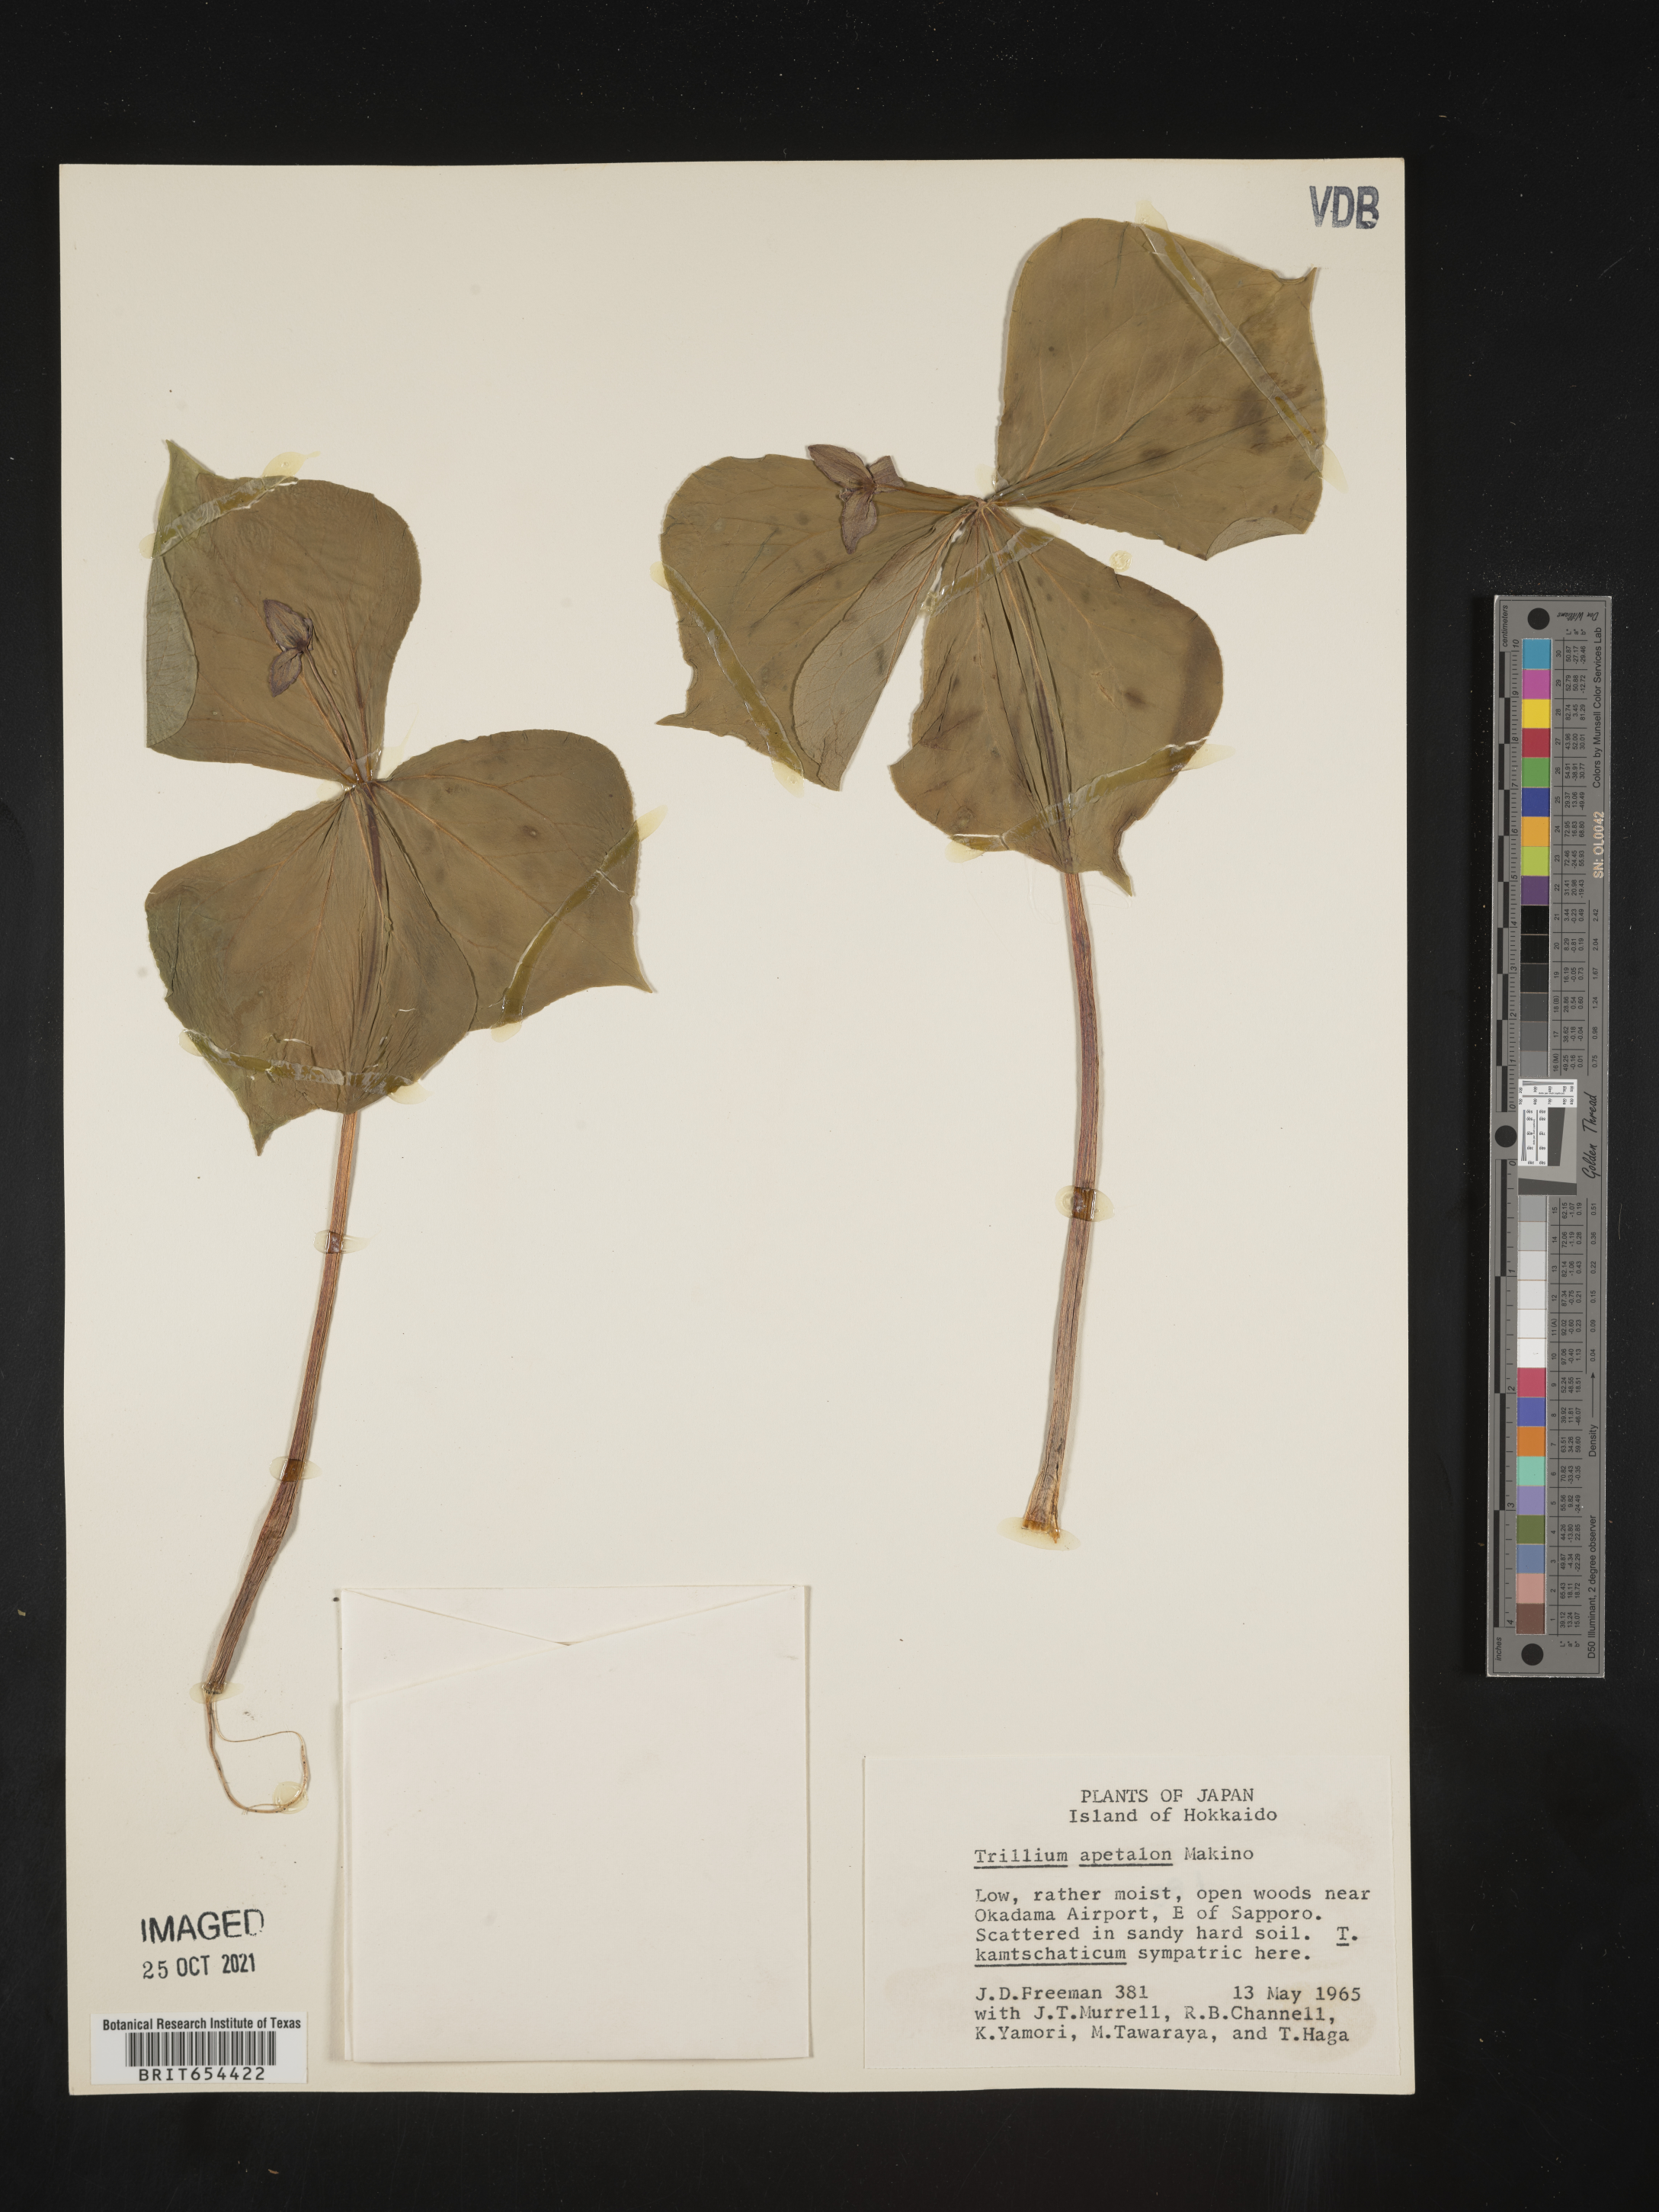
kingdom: Plantae
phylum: Tracheophyta
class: Liliopsida
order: Liliales
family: Melanthiaceae
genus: Trillium
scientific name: Trillium
